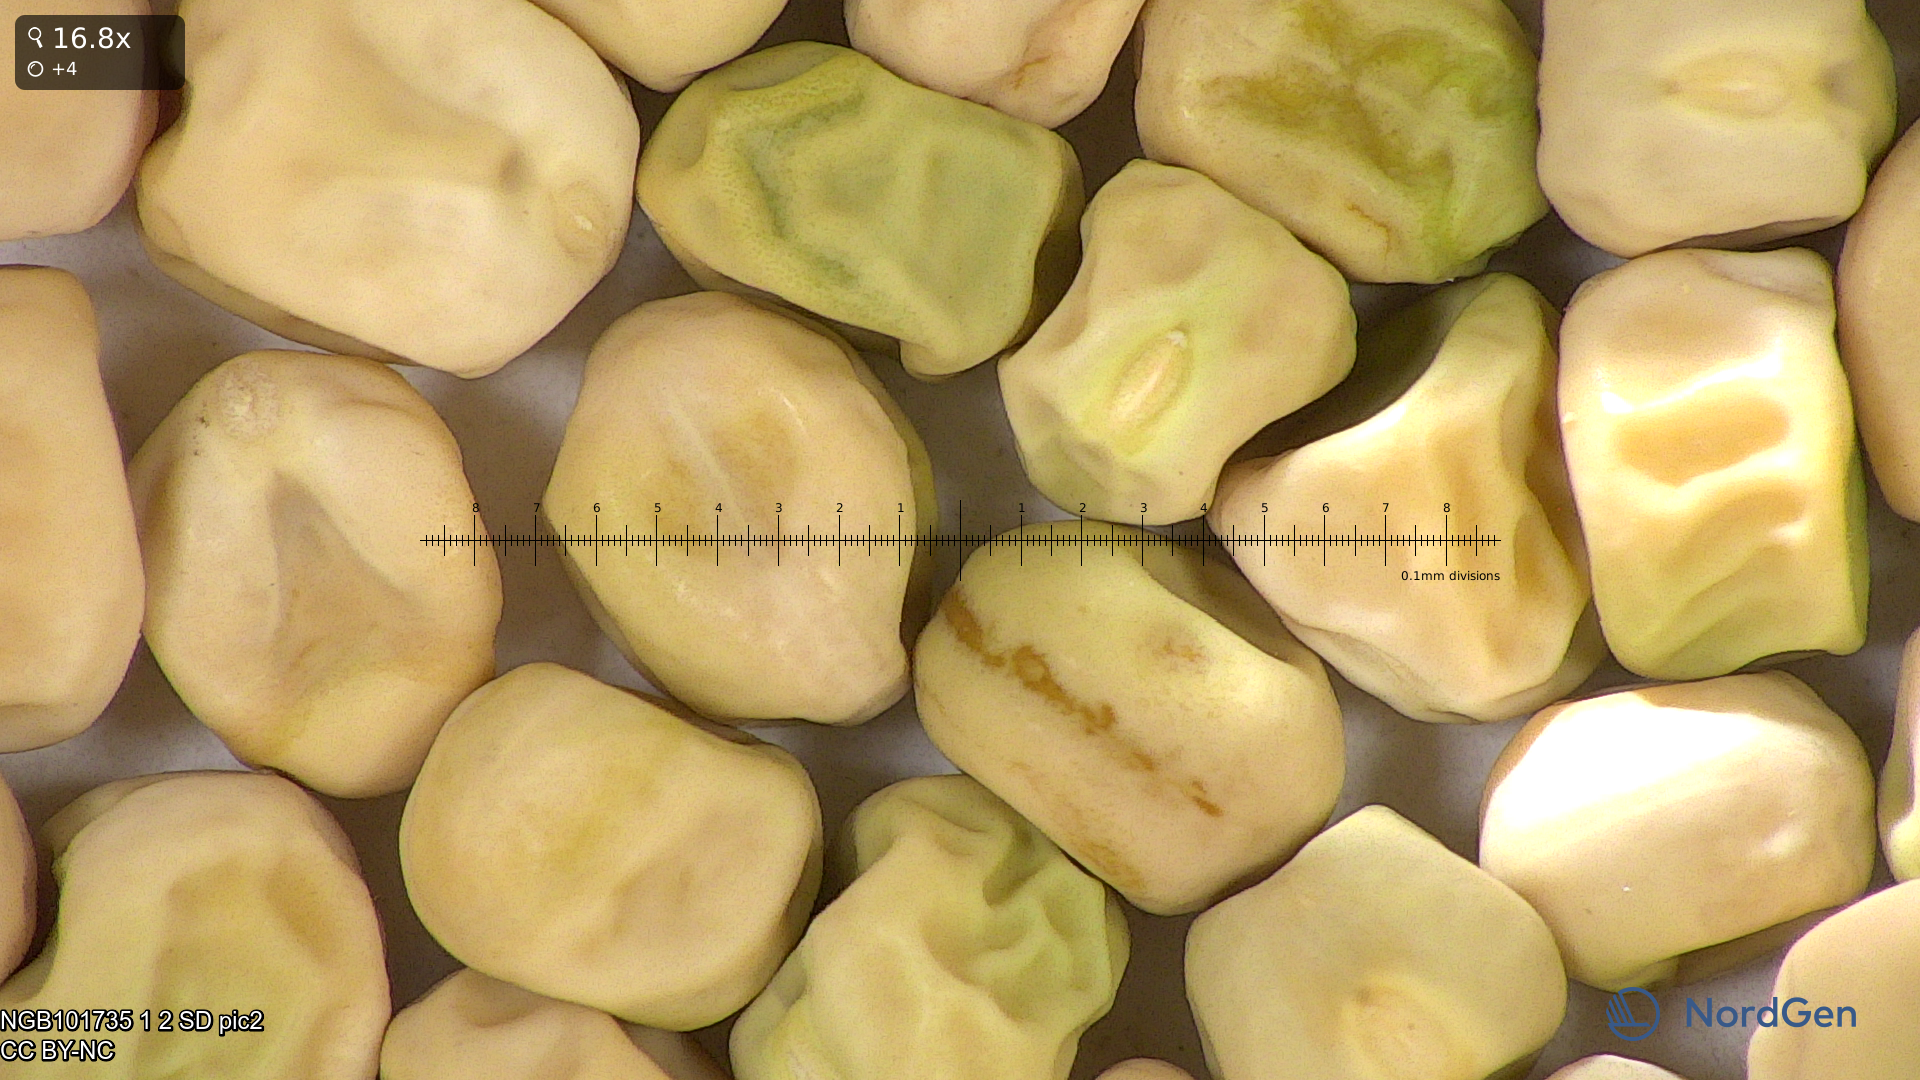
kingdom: Plantae
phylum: Tracheophyta
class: Magnoliopsida
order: Fabales
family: Fabaceae
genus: Lathyrus
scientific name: Lathyrus oleraceus
